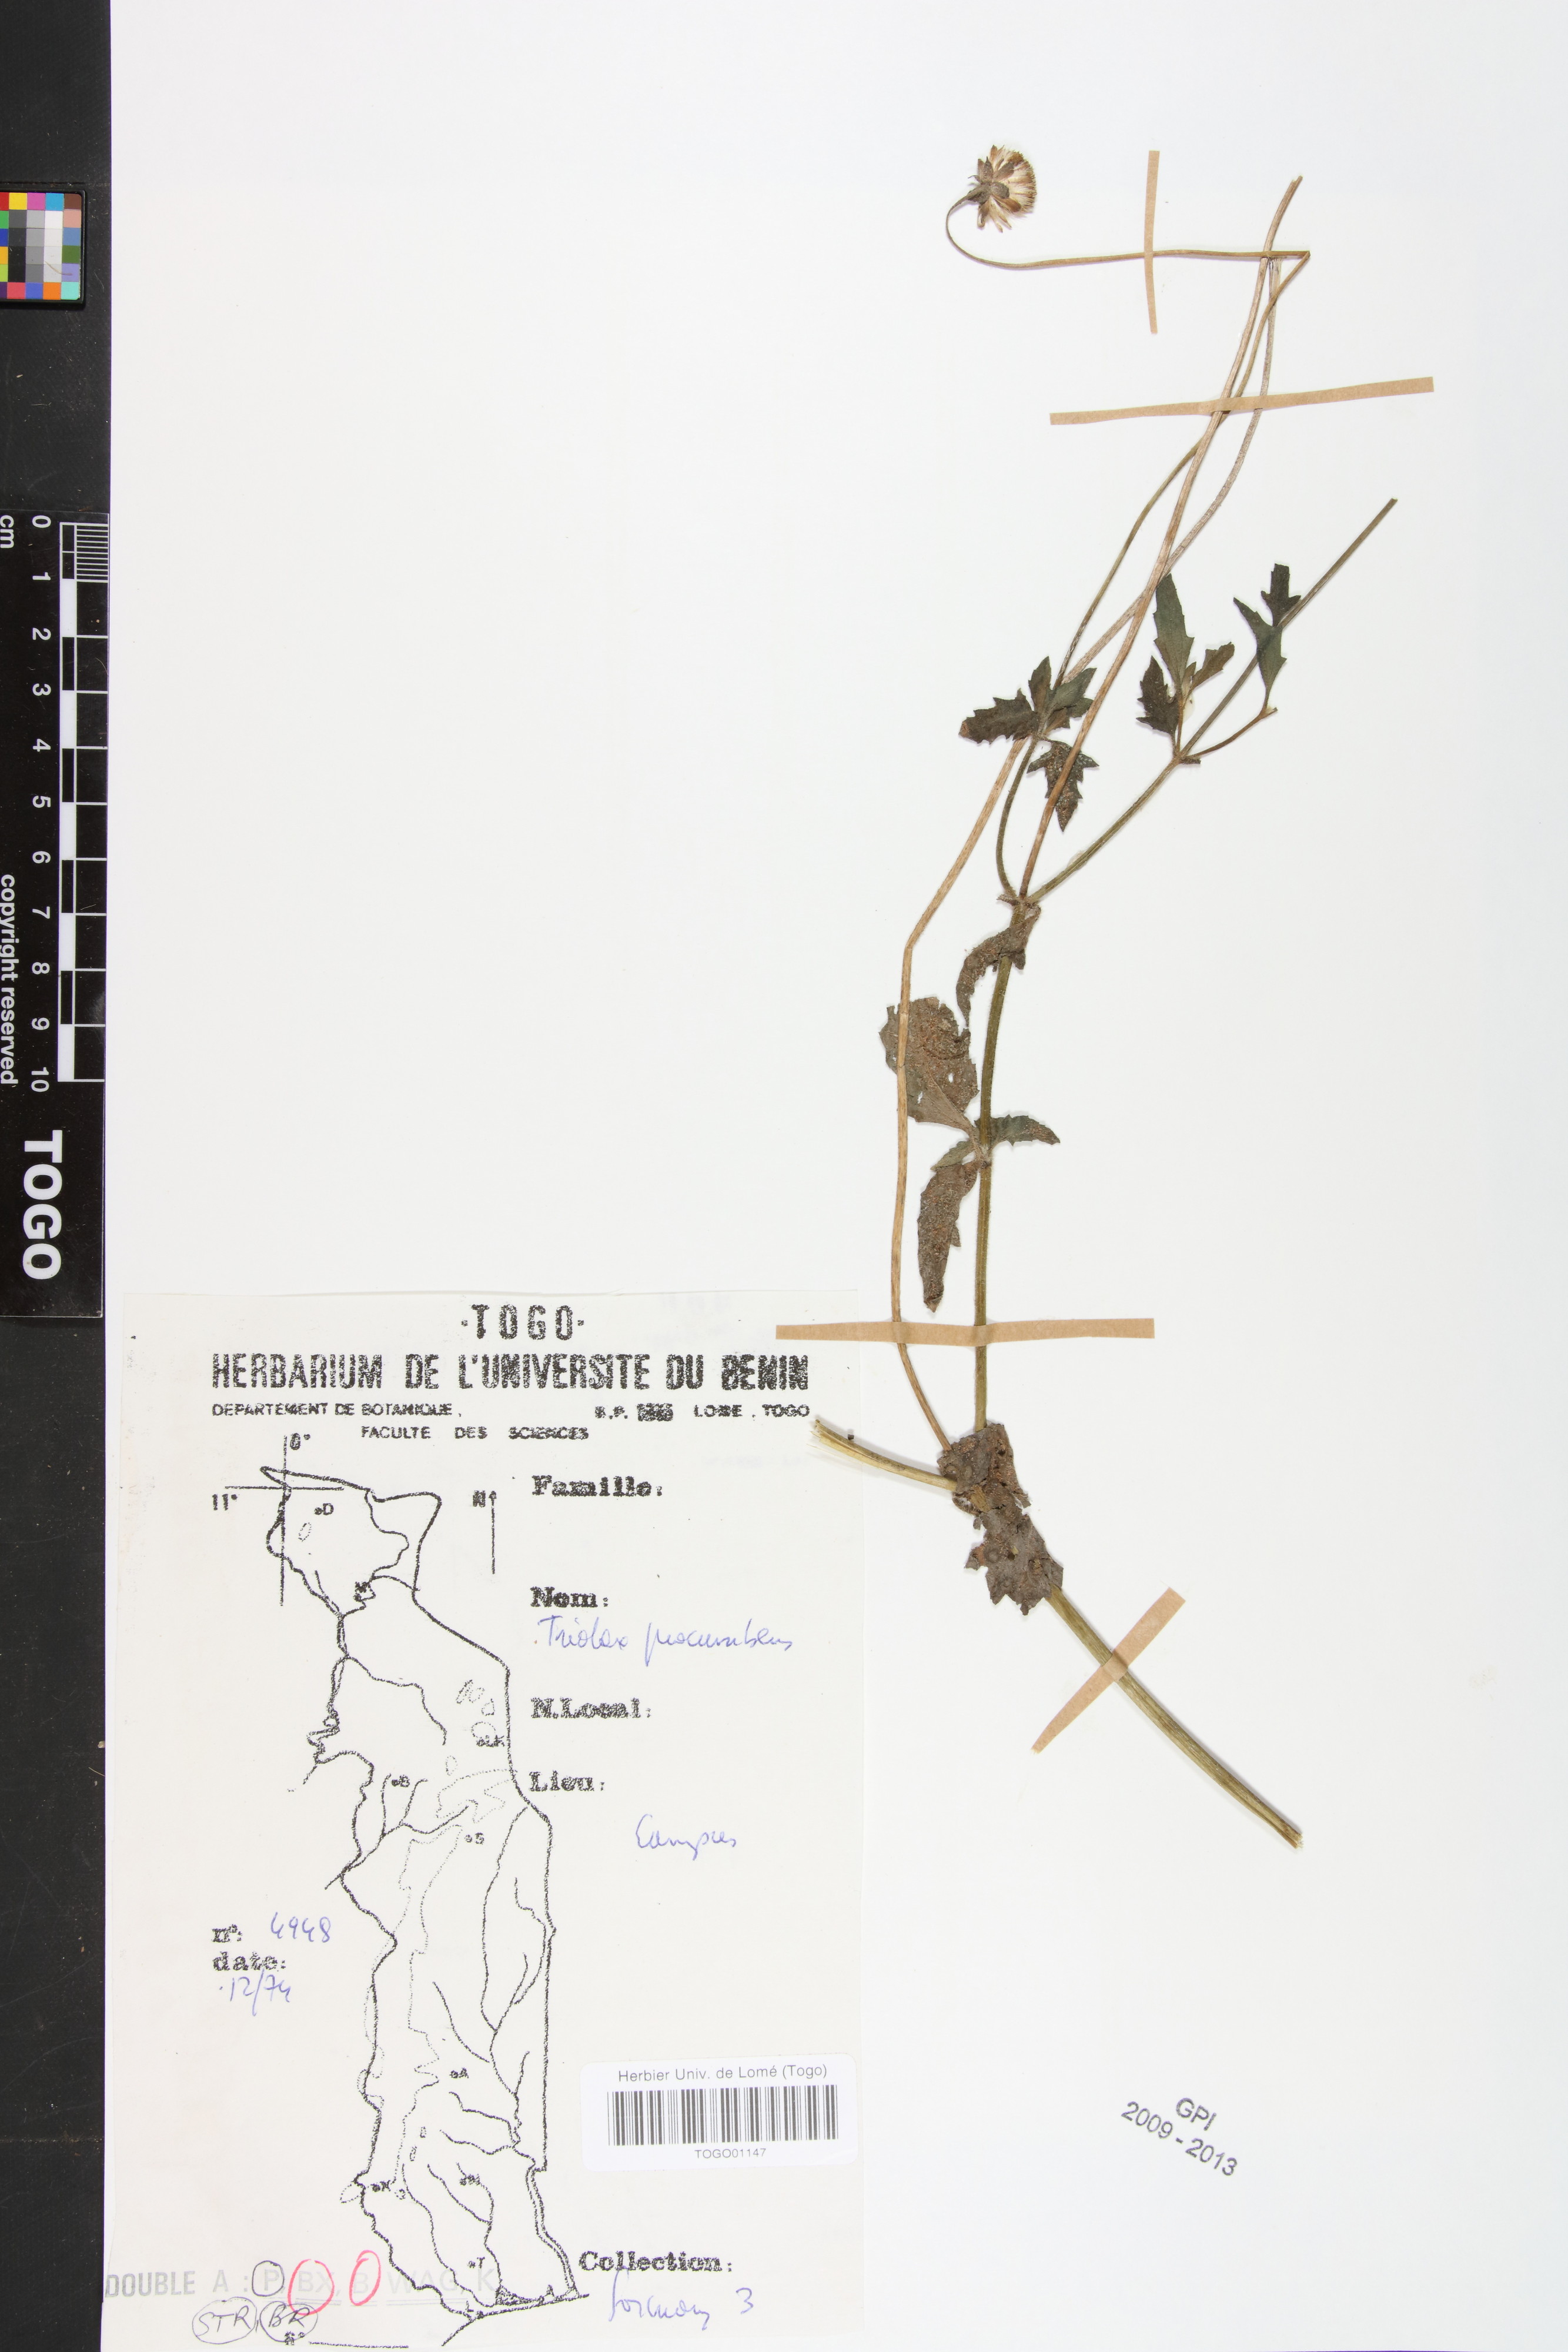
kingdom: Plantae
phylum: Tracheophyta
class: Magnoliopsida
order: Asterales
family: Asteraceae
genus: Tridax
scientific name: Tridax procumbens
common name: Coatbuttons
